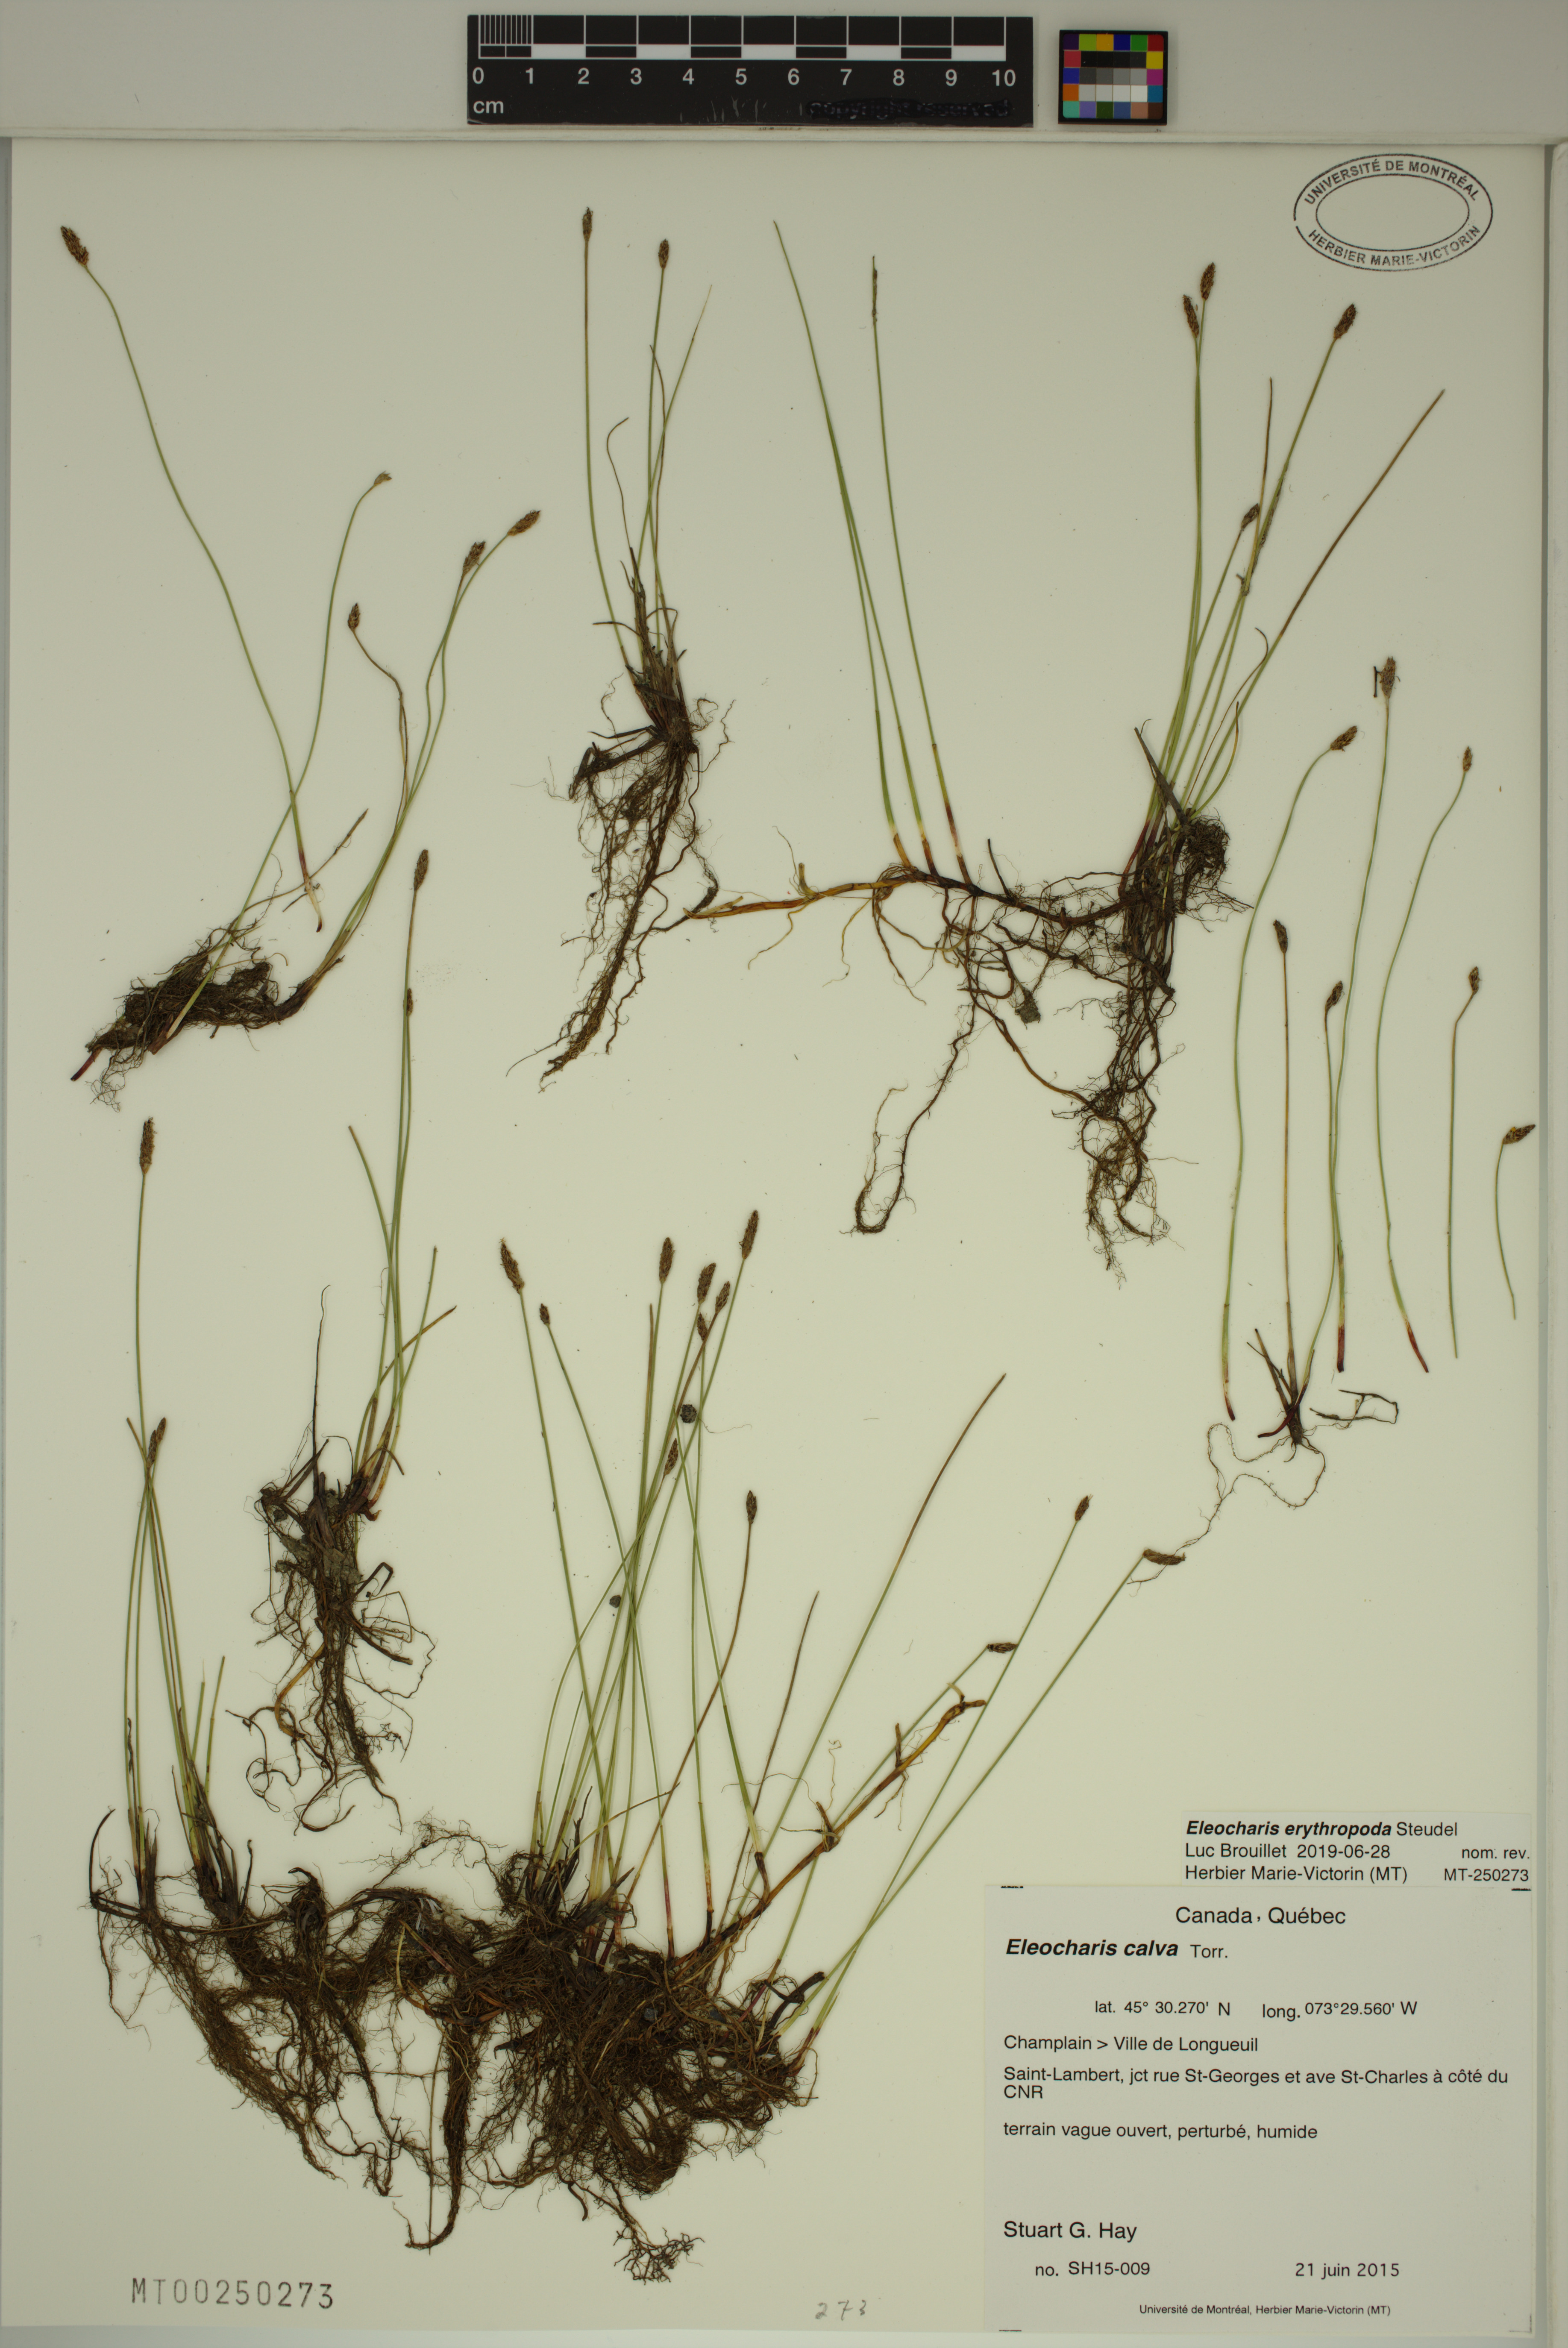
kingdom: Plantae
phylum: Tracheophyta
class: Liliopsida
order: Poales
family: Cyperaceae
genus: Eleocharis
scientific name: Eleocharis erythropoda
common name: Bald spikerush
